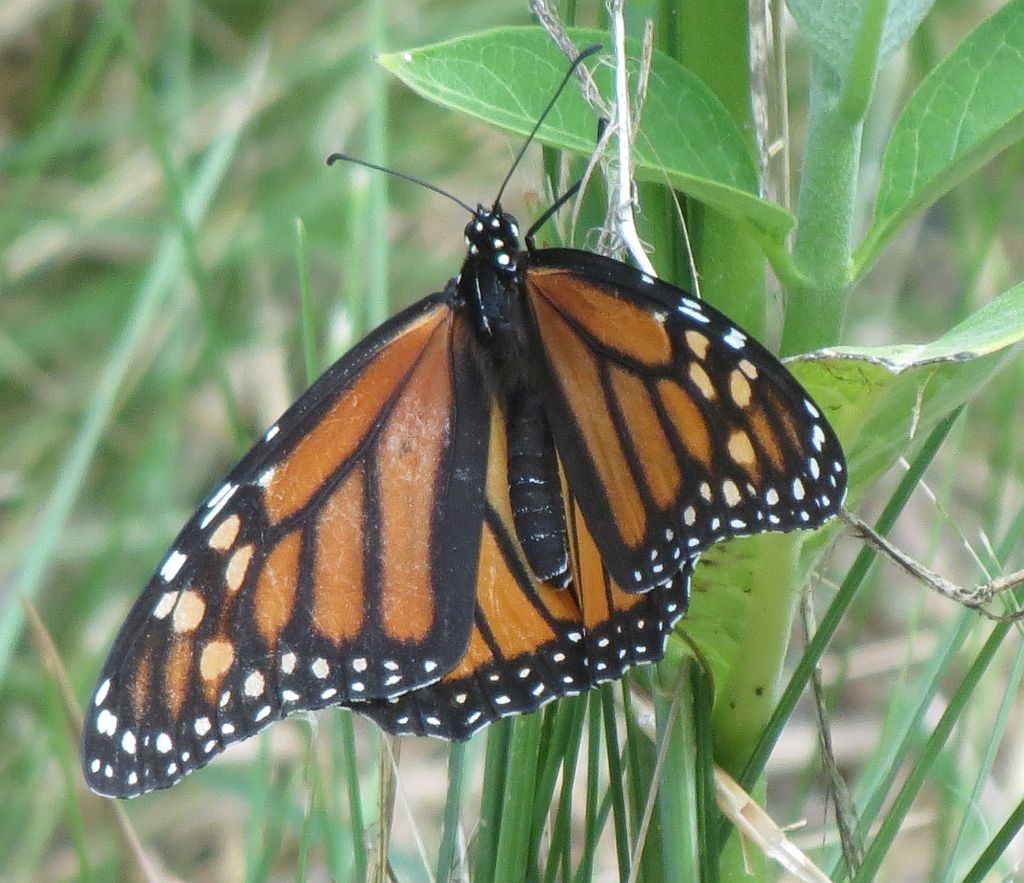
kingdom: Animalia
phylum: Arthropoda
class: Insecta
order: Lepidoptera
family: Nymphalidae
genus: Danaus
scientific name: Danaus plexippus
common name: Monarch
